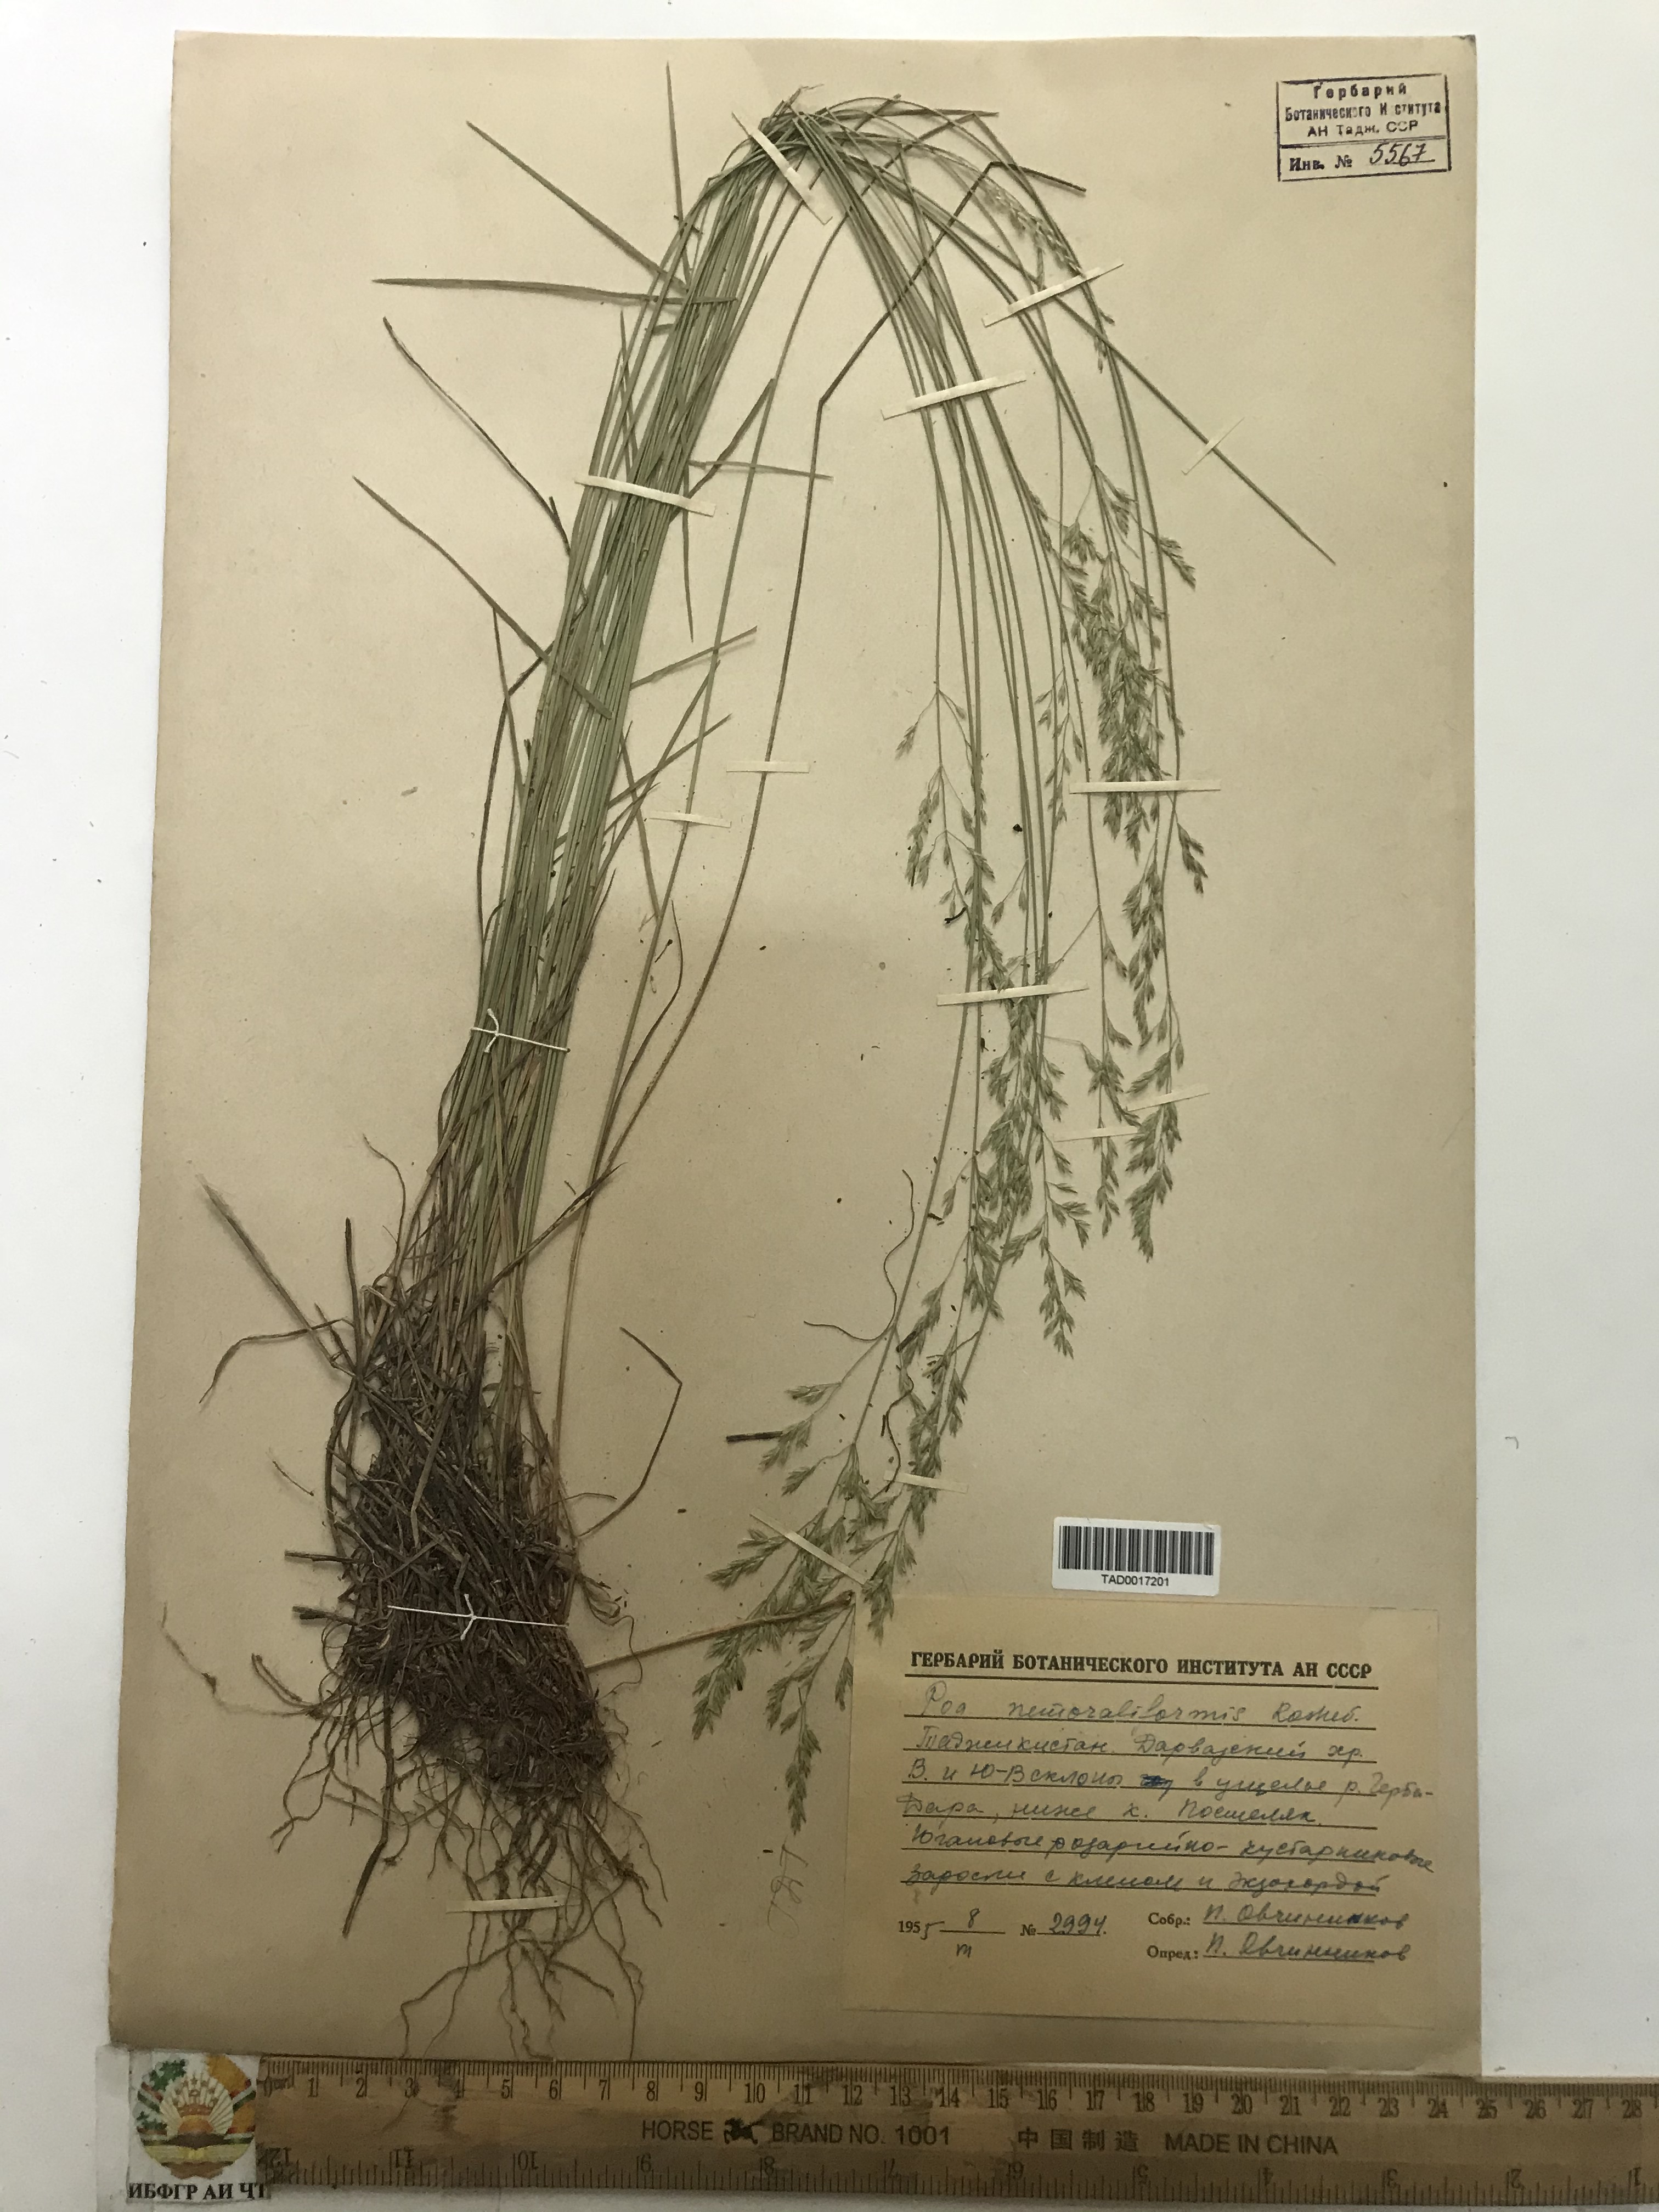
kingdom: Plantae
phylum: Tracheophyta
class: Liliopsida
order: Poales
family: Poaceae
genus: Poa
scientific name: Poa urssulensis
